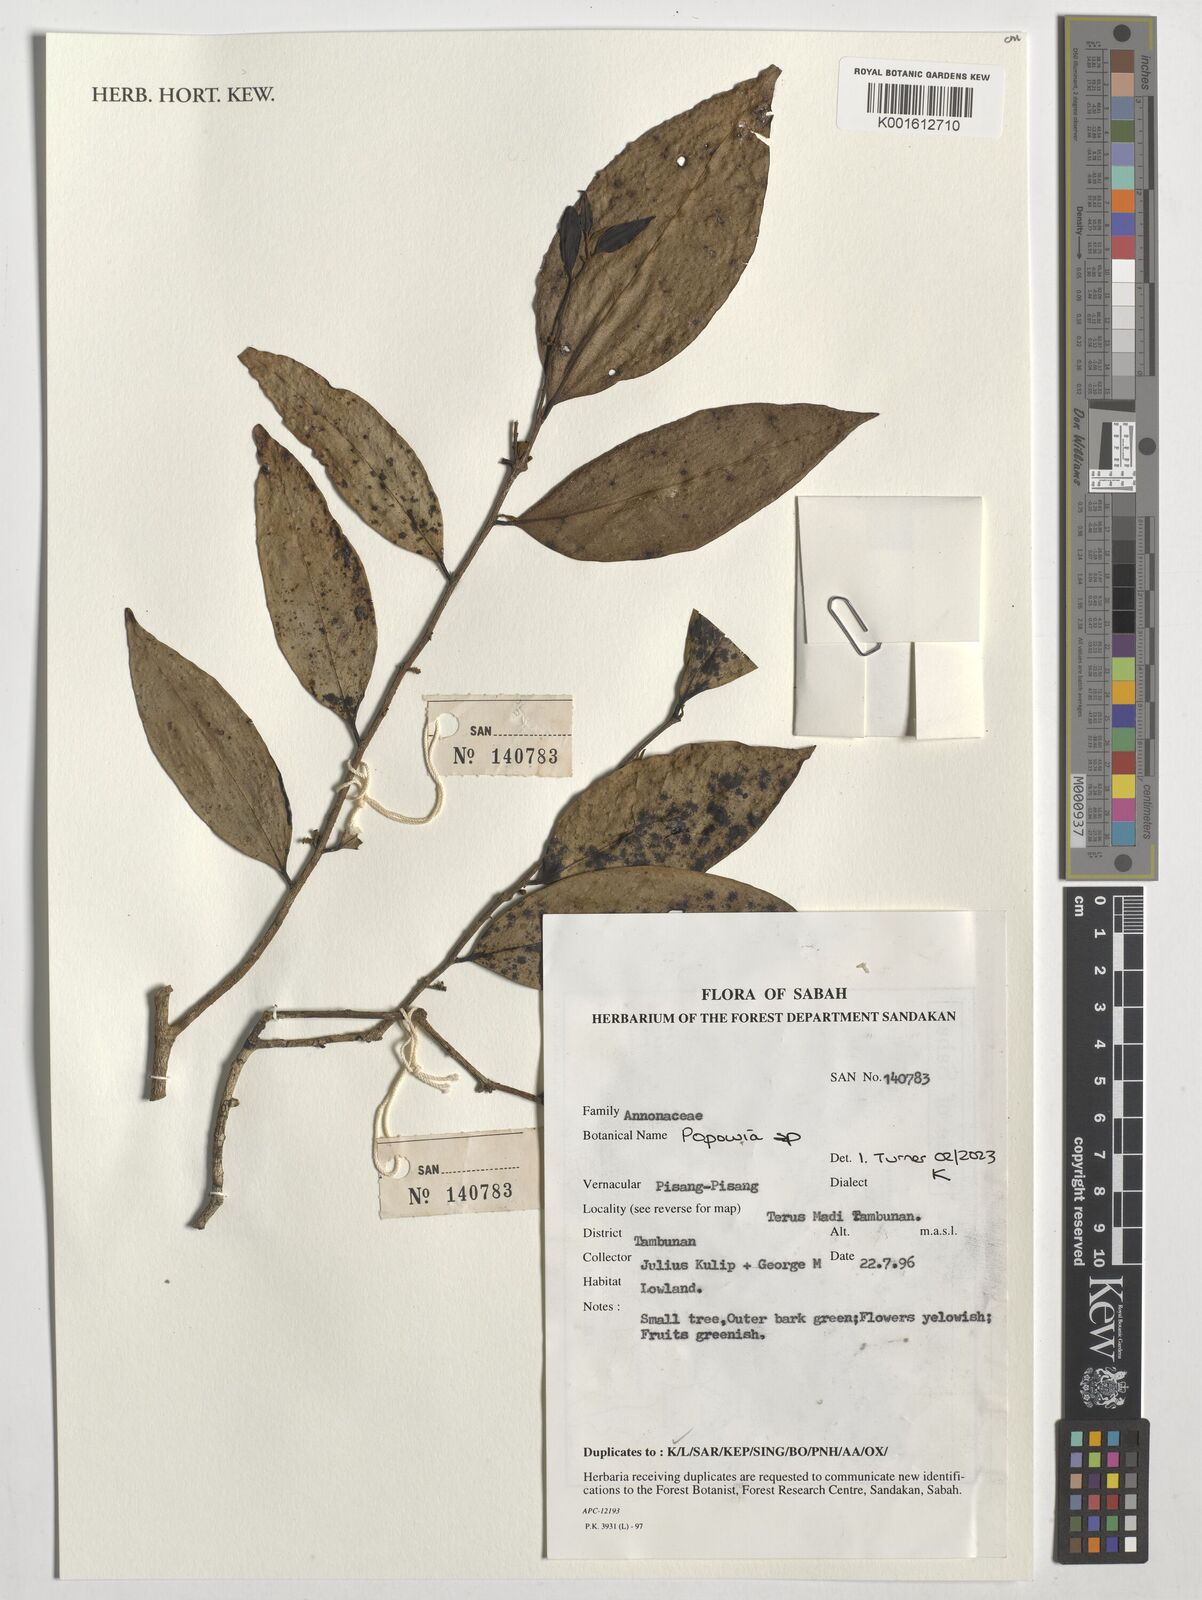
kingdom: Plantae
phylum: Tracheophyta
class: Magnoliopsida
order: Magnoliales
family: Annonaceae
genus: Popowia
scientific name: Popowia
